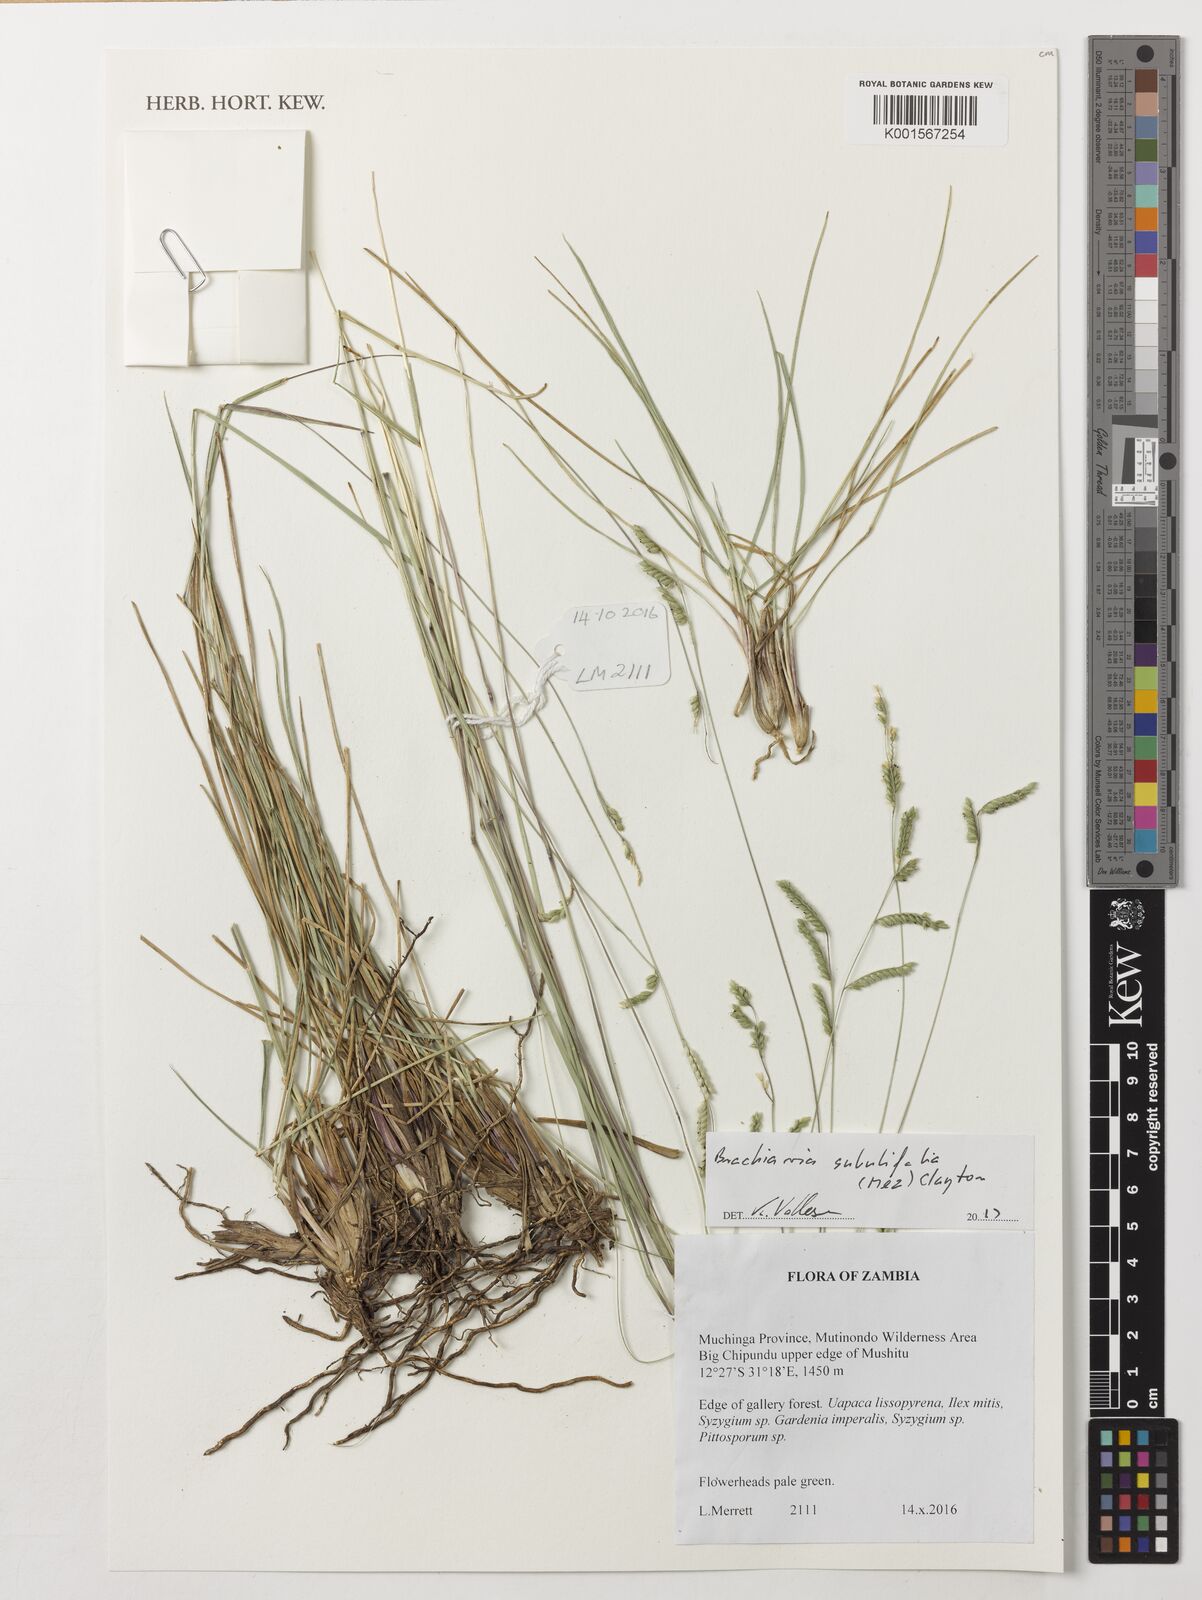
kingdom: Plantae
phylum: Tracheophyta
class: Liliopsida
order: Poales
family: Poaceae
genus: Urochloa
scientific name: Urochloa subulifolia
